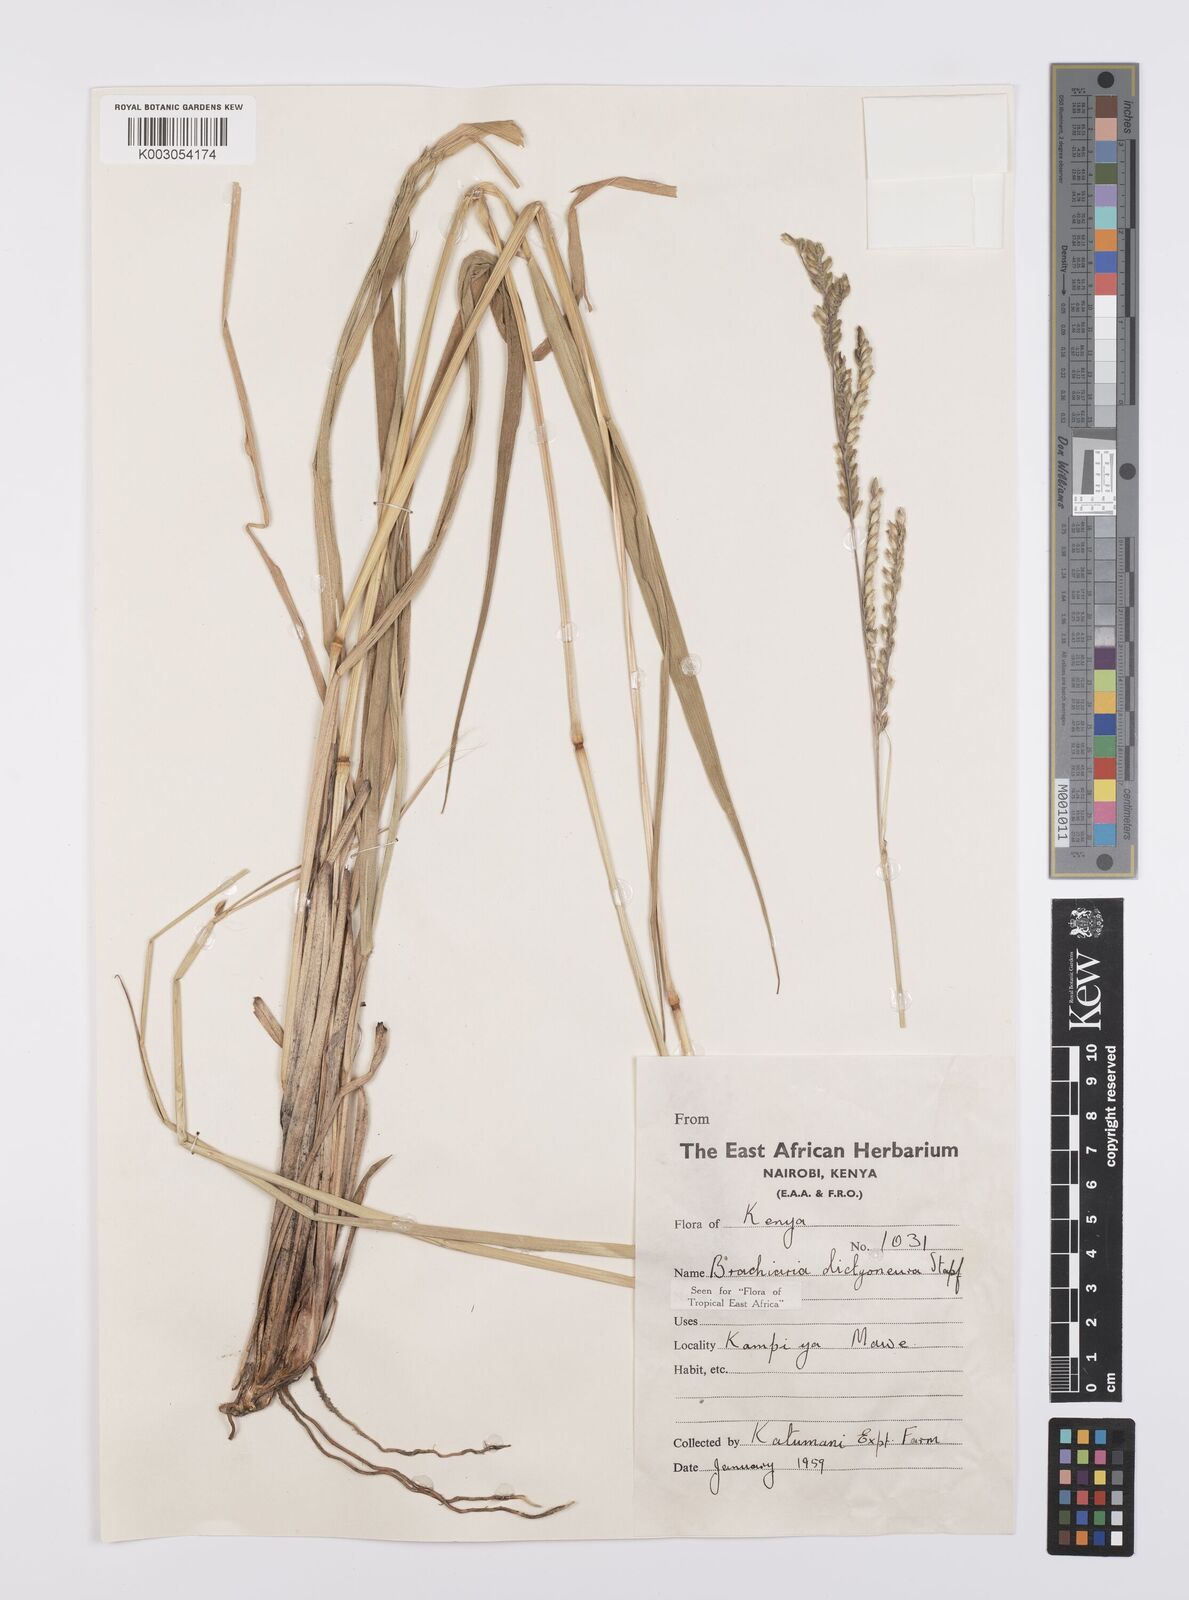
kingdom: Plantae
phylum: Tracheophyta
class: Liliopsida
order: Poales
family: Poaceae
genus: Urochloa
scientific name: Urochloa dictyoneura
